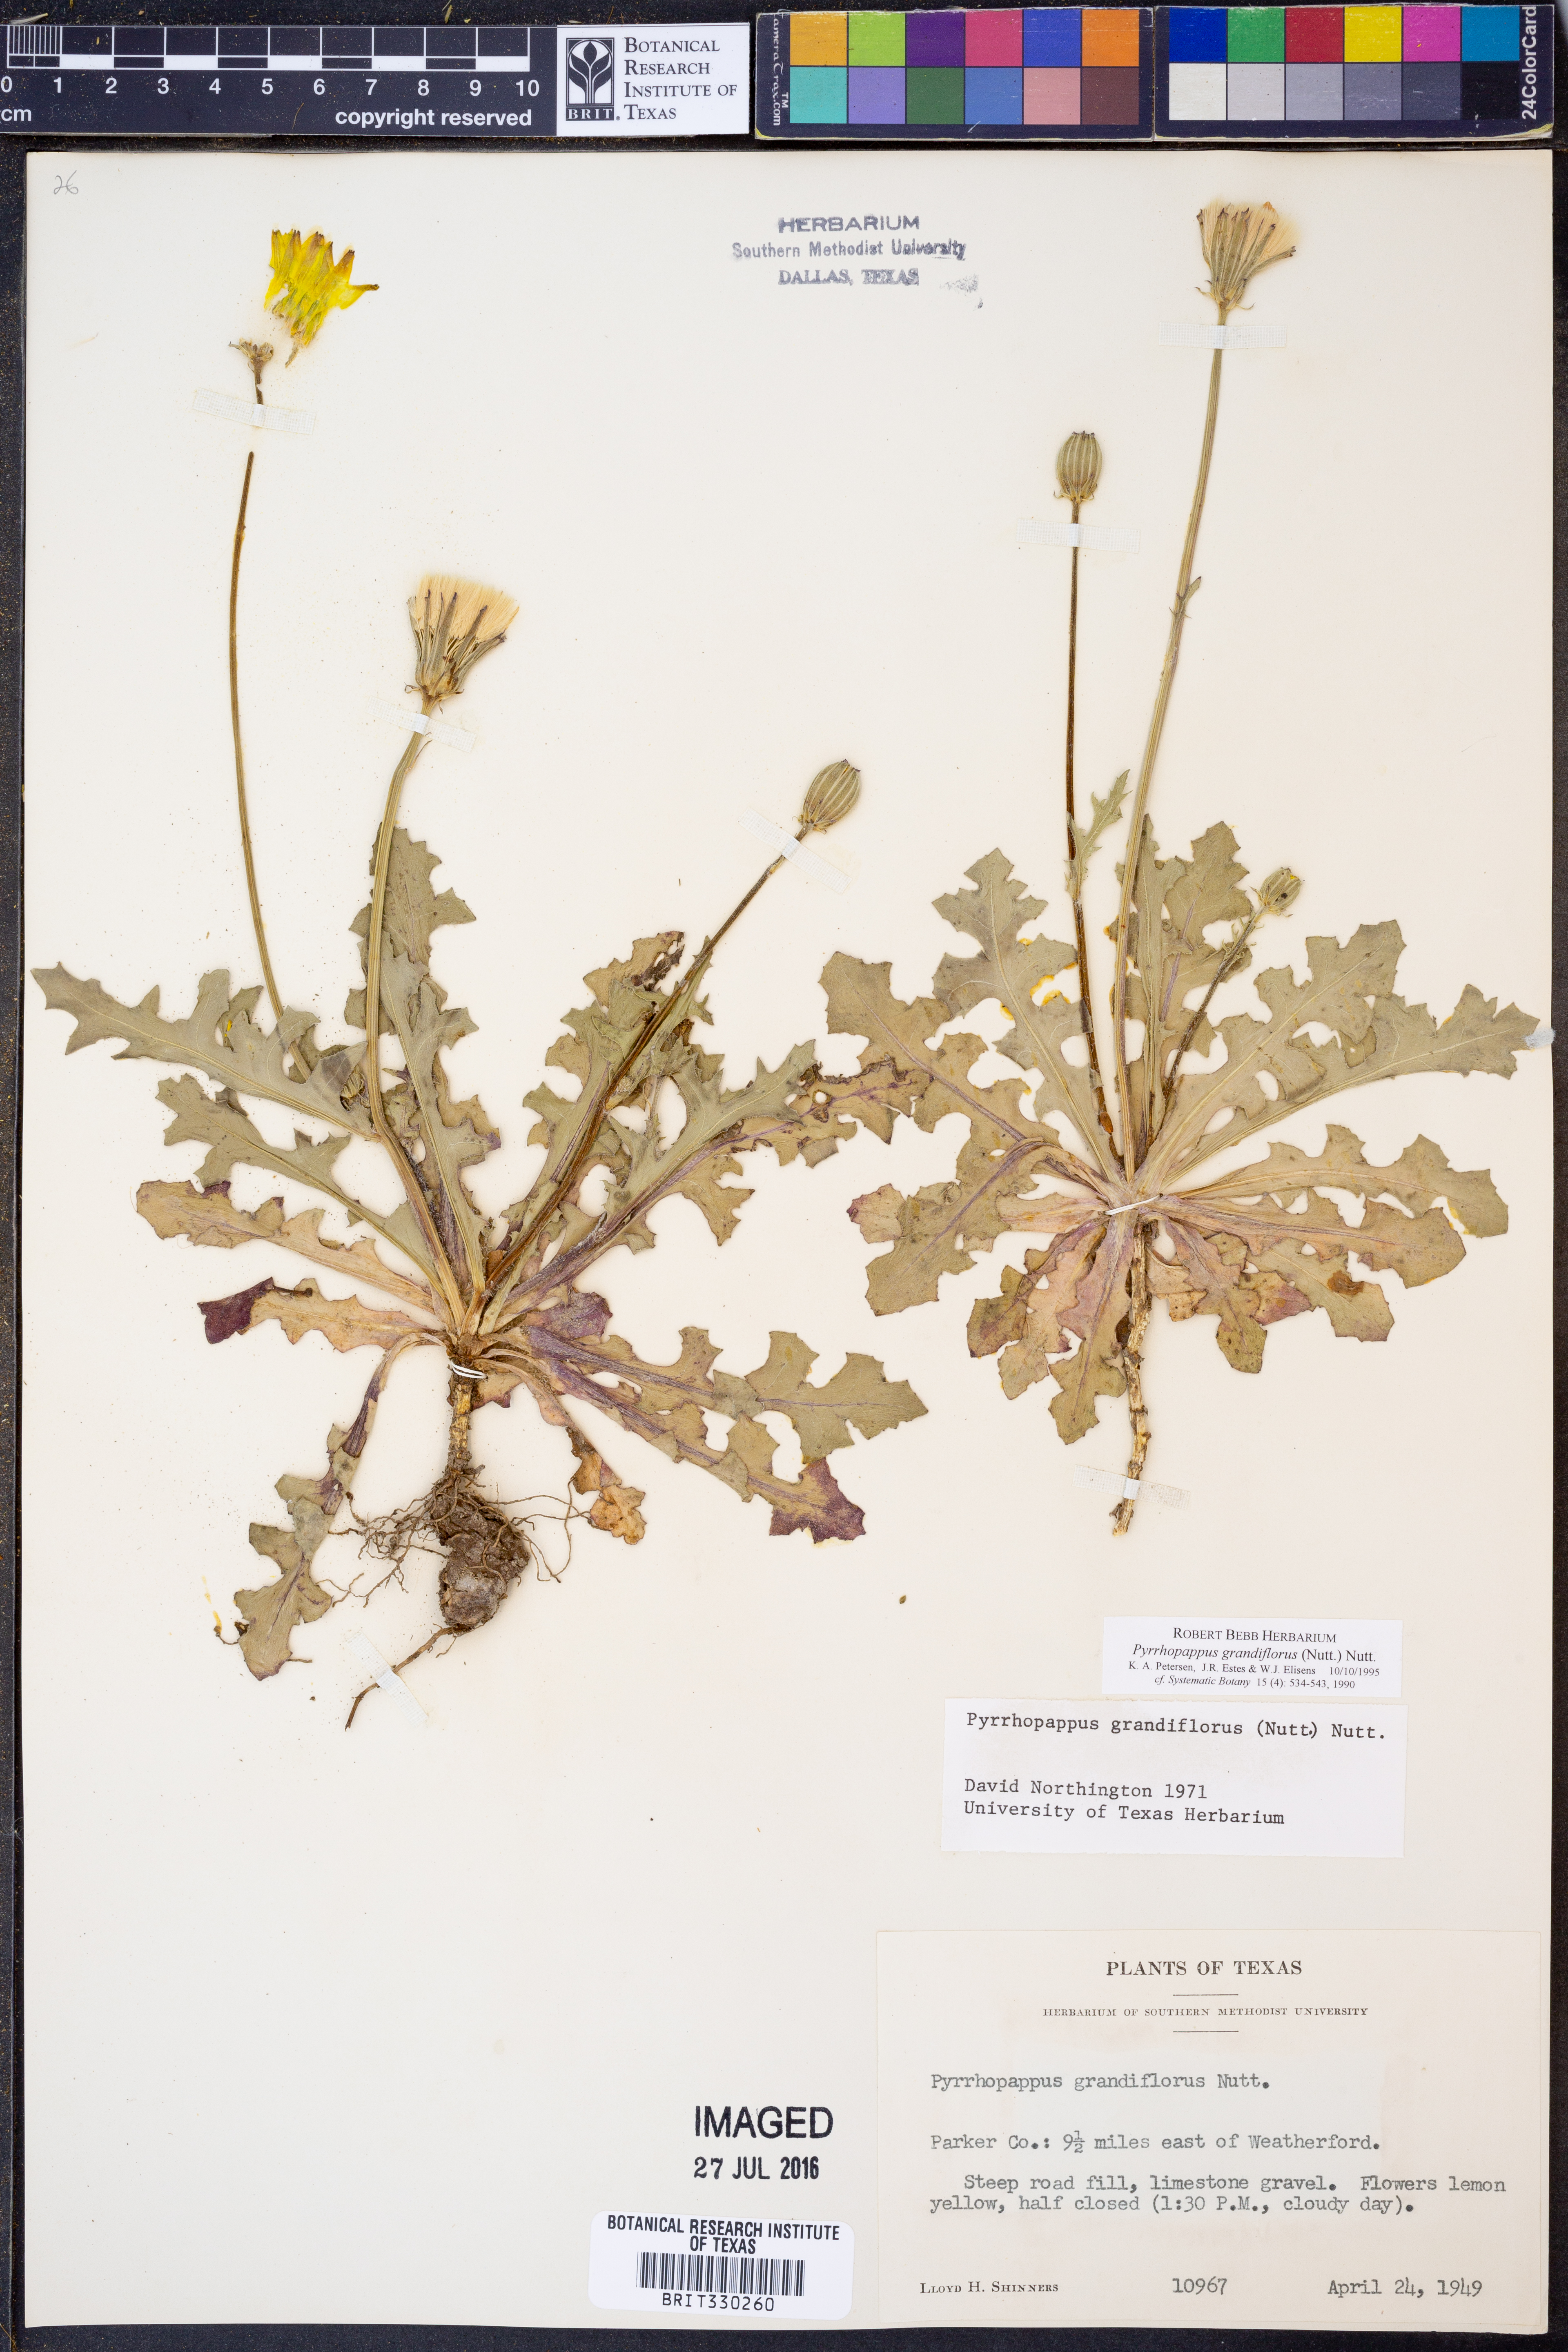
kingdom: Plantae
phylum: Tracheophyta
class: Magnoliopsida
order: Asterales
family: Asteraceae
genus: Pyrrhopappus
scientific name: Pyrrhopappus grandiflorus
